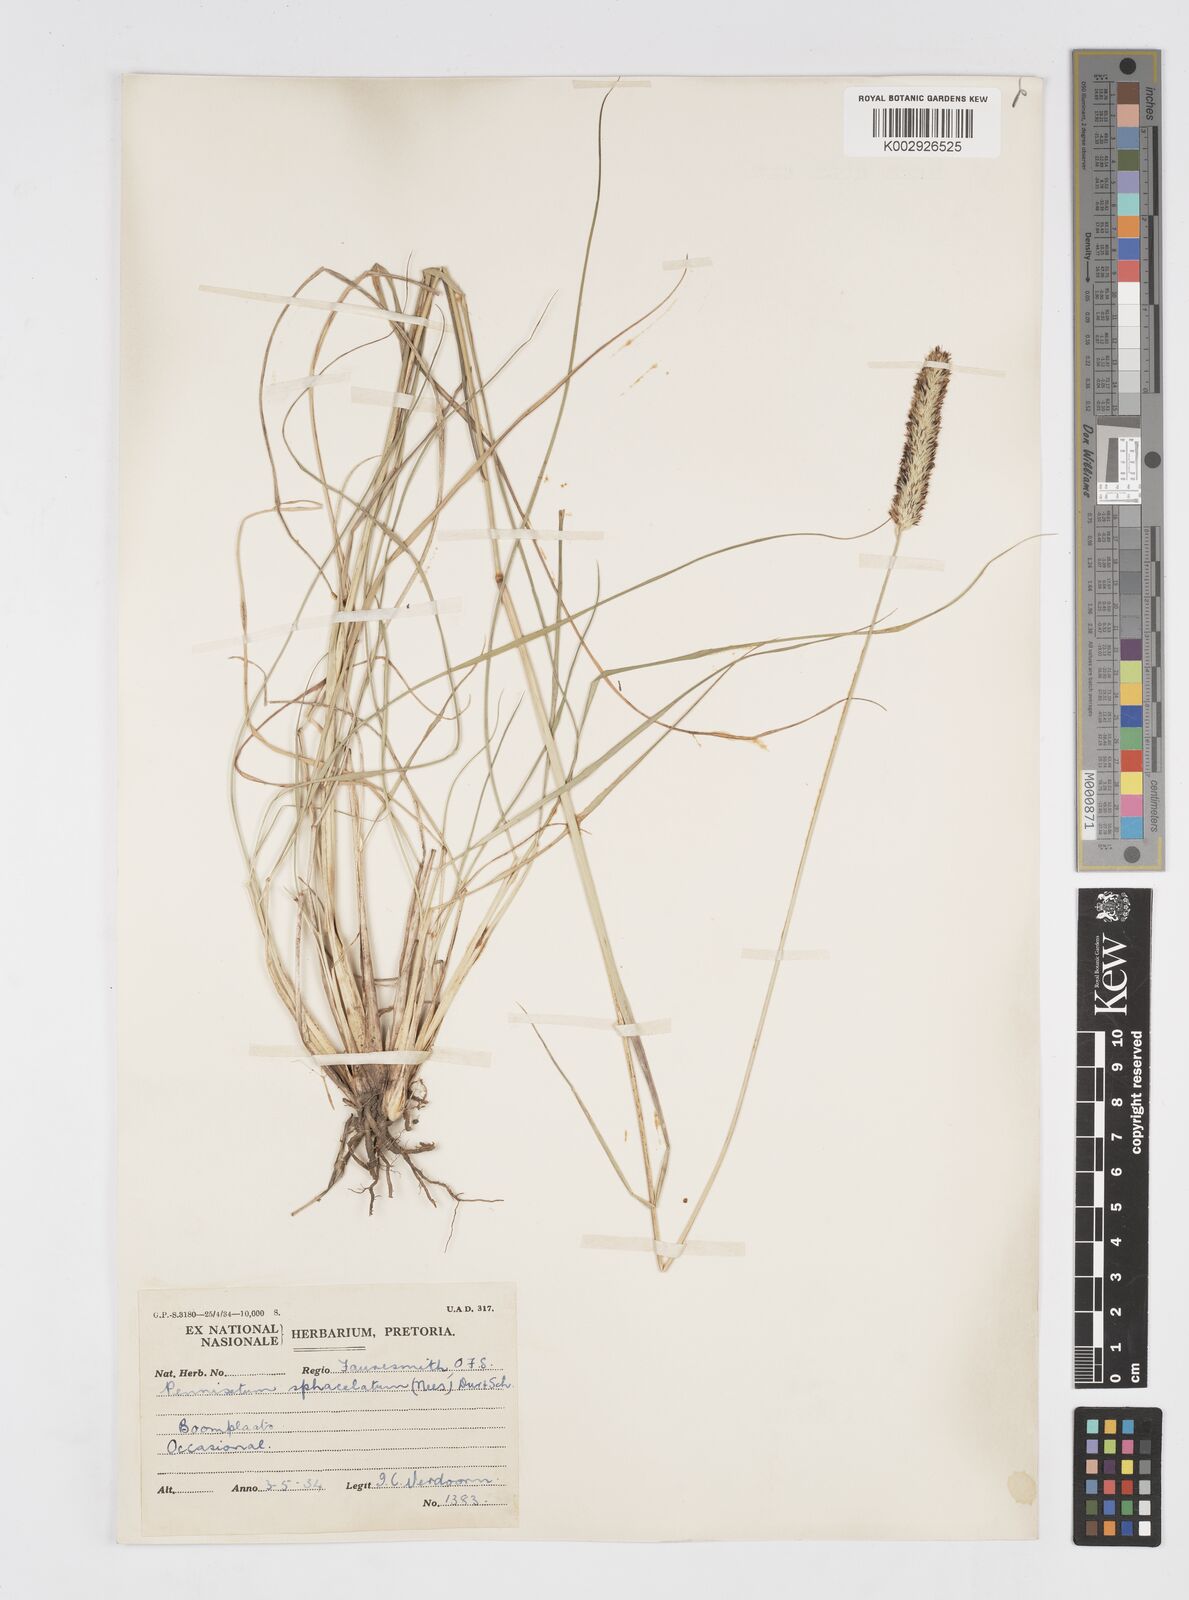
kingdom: Plantae
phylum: Tracheophyta
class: Liliopsida
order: Poales
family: Poaceae
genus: Cenchrus
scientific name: Cenchrus sphacelatus
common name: Bulgras
